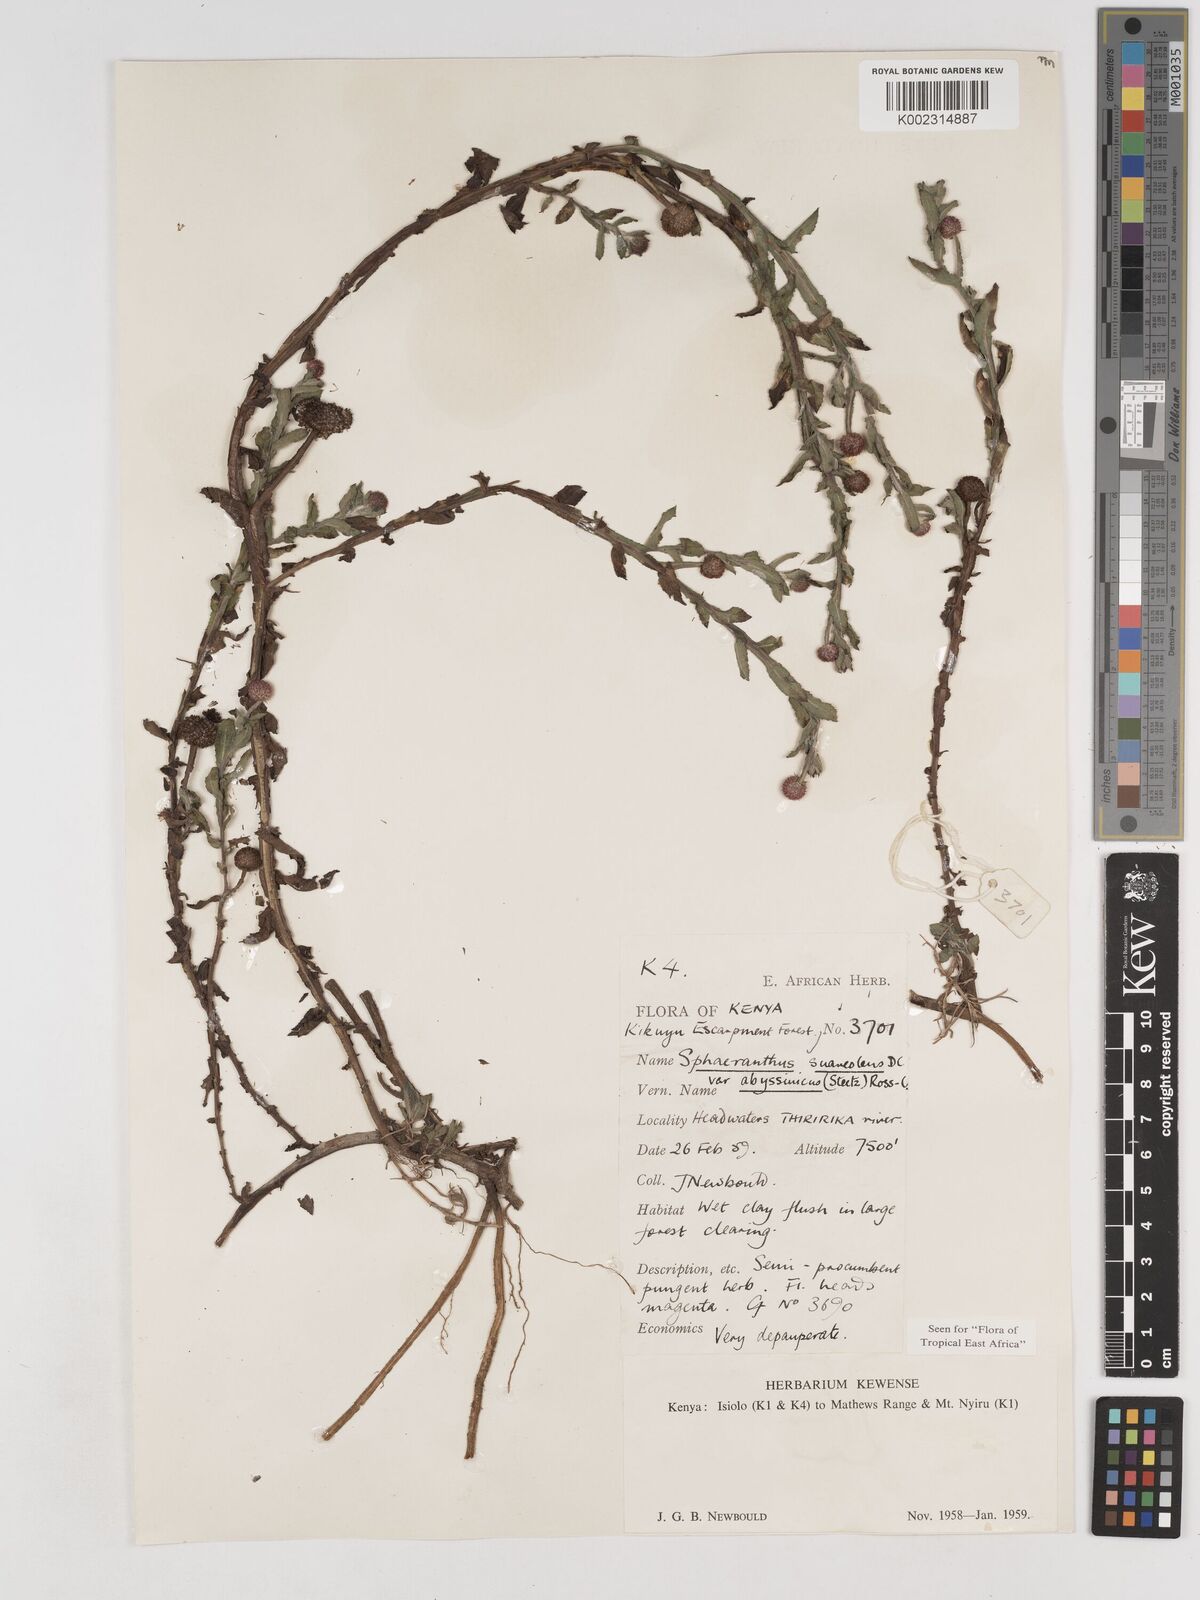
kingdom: Plantae
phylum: Tracheophyta
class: Magnoliopsida
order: Asterales
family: Asteraceae
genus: Sphaeranthus
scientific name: Sphaeranthus suaveolens
